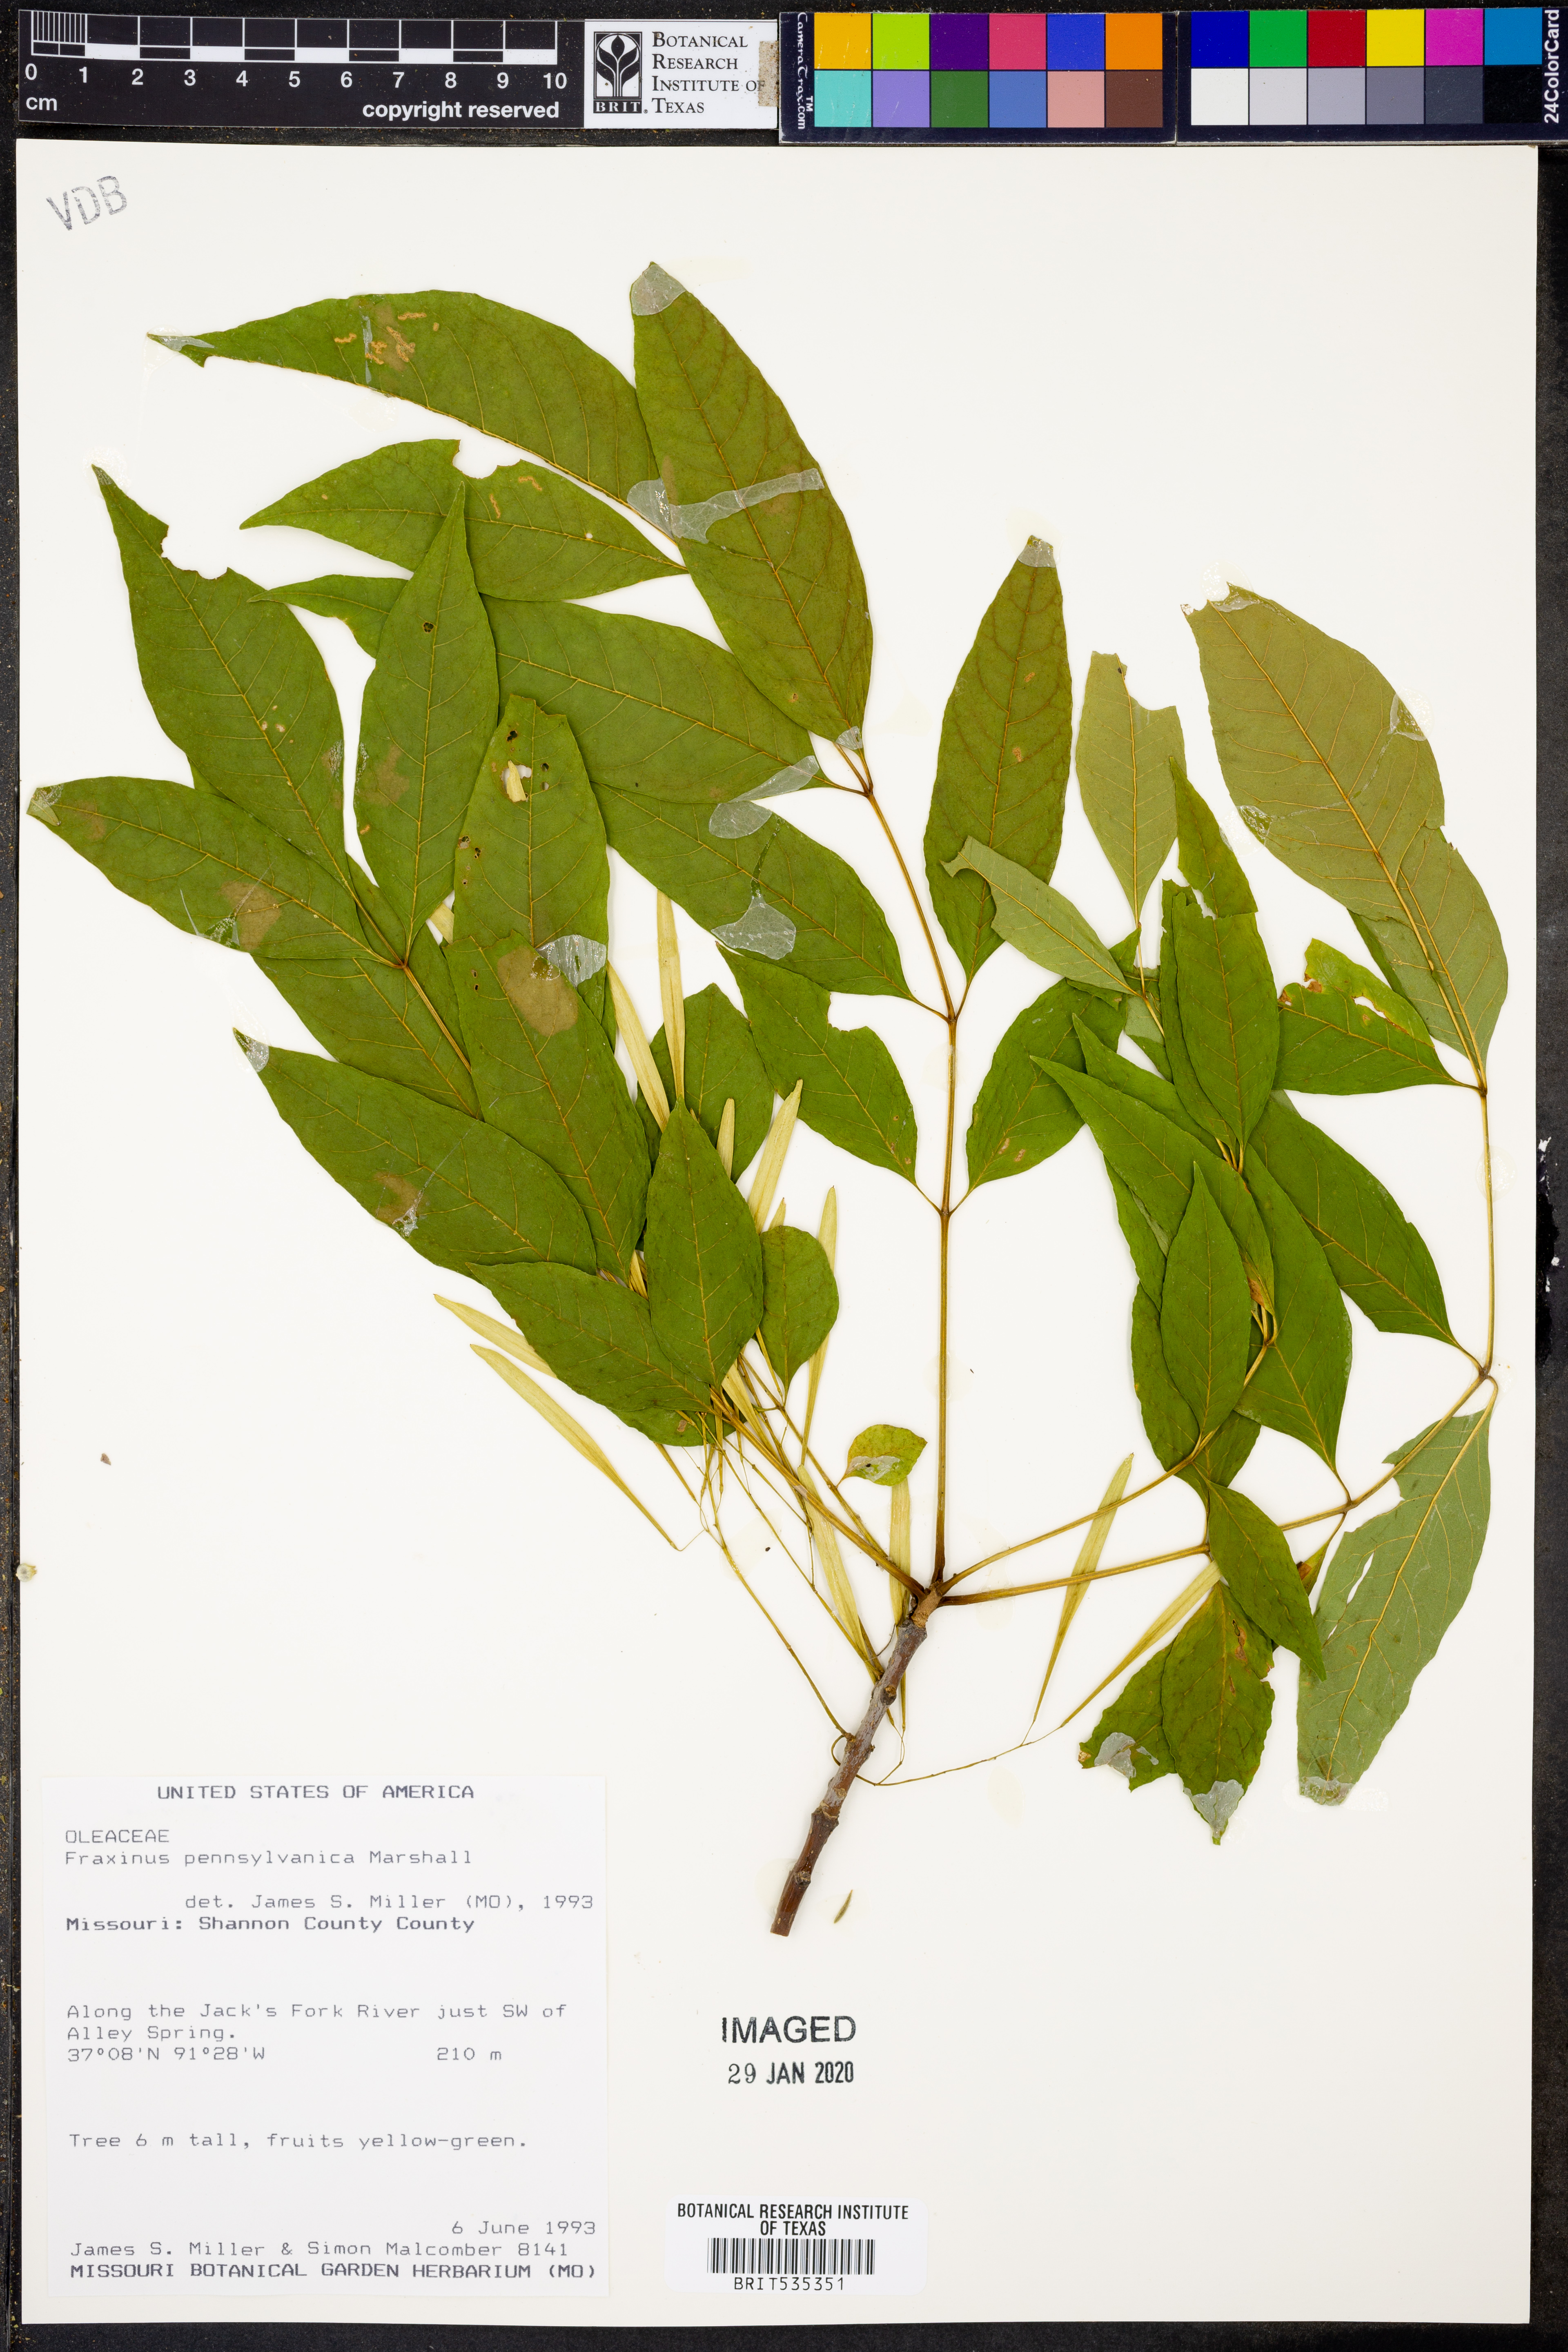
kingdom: Plantae
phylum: Tracheophyta
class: Magnoliopsida
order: Lamiales
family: Oleaceae
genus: Fraxinus
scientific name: Fraxinus pennsylvanica
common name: Green ash
